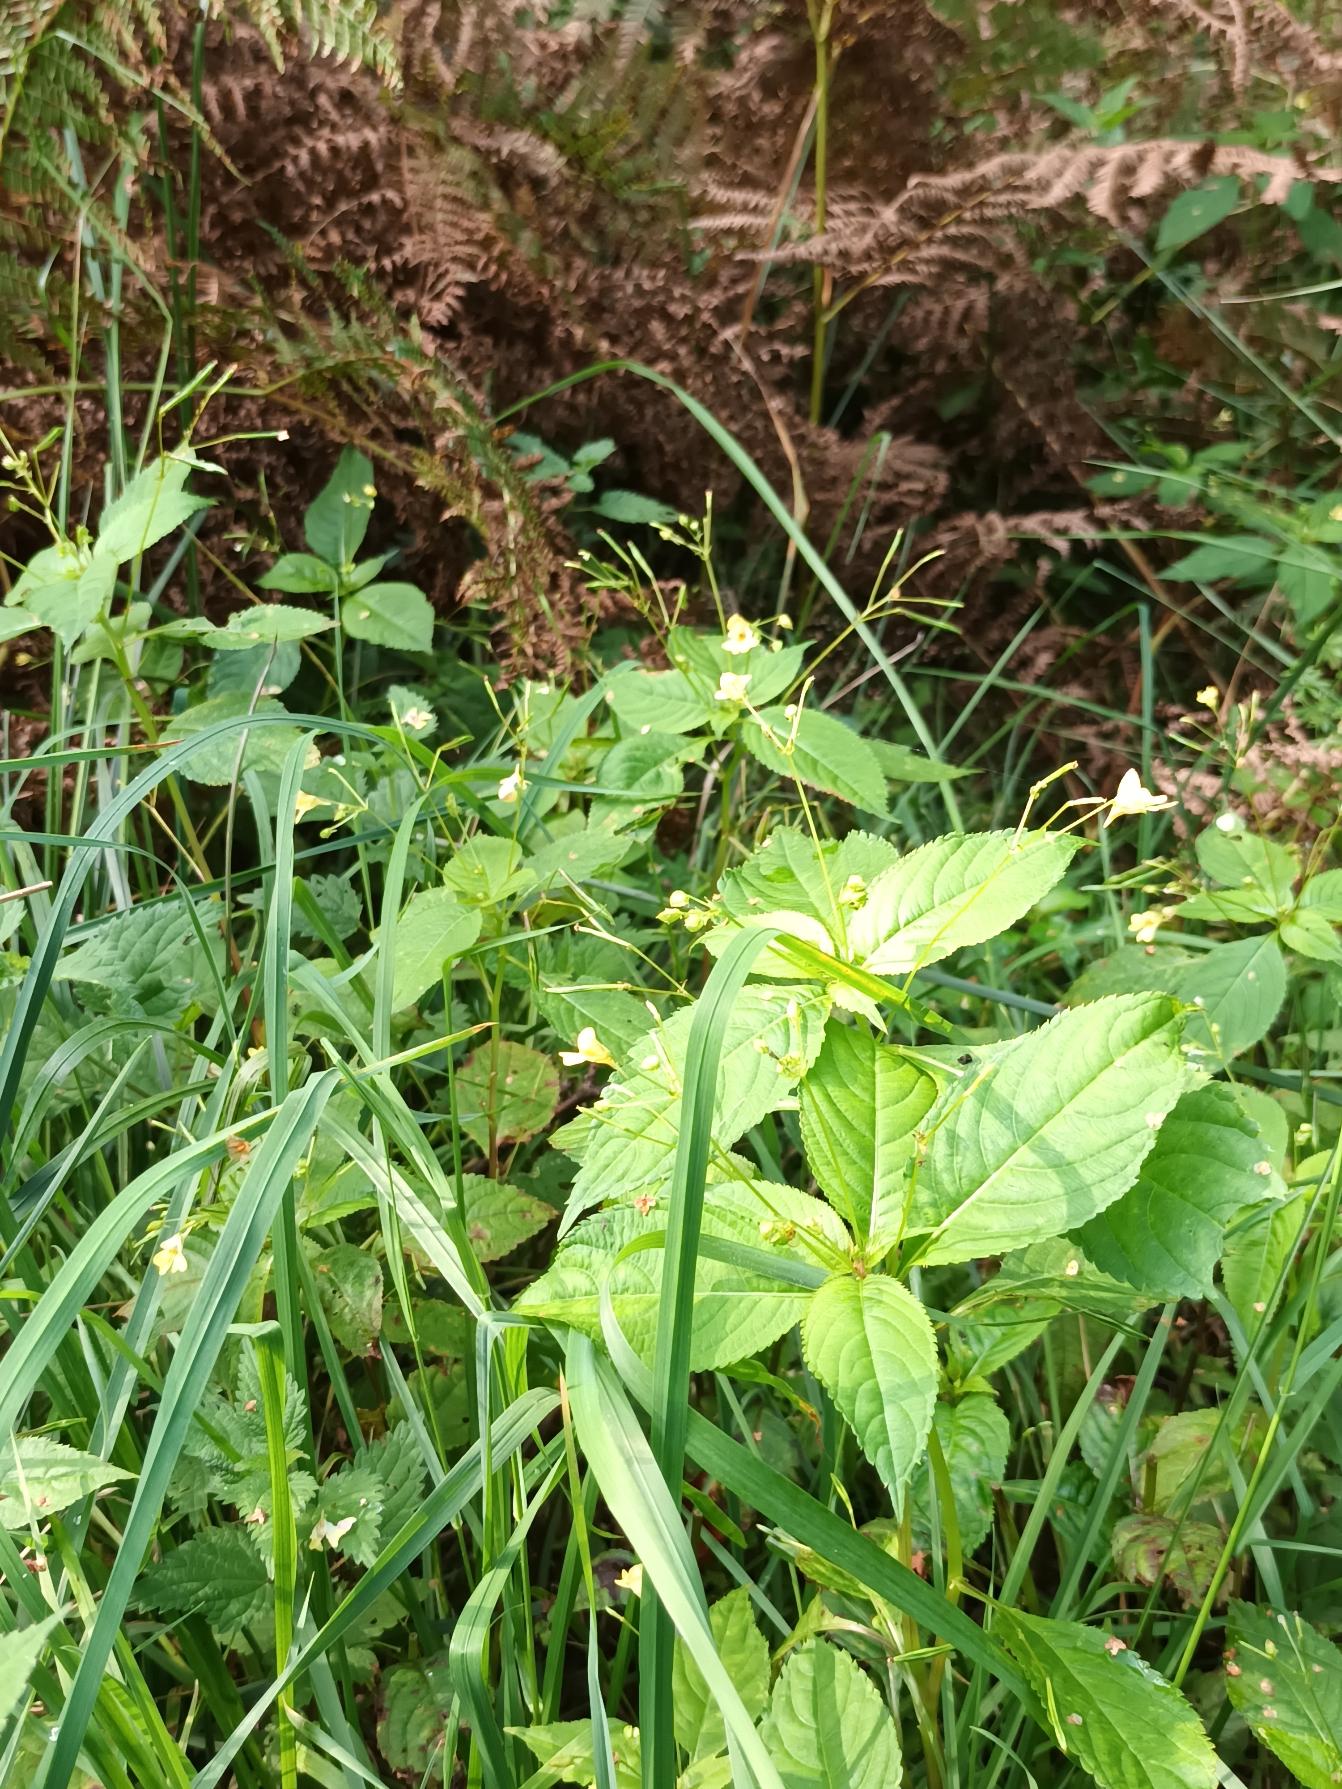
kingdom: Plantae
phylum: Tracheophyta
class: Magnoliopsida
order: Ericales
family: Balsaminaceae
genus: Impatiens
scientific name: Impatiens parviflora
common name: Småblomstret balsamin
